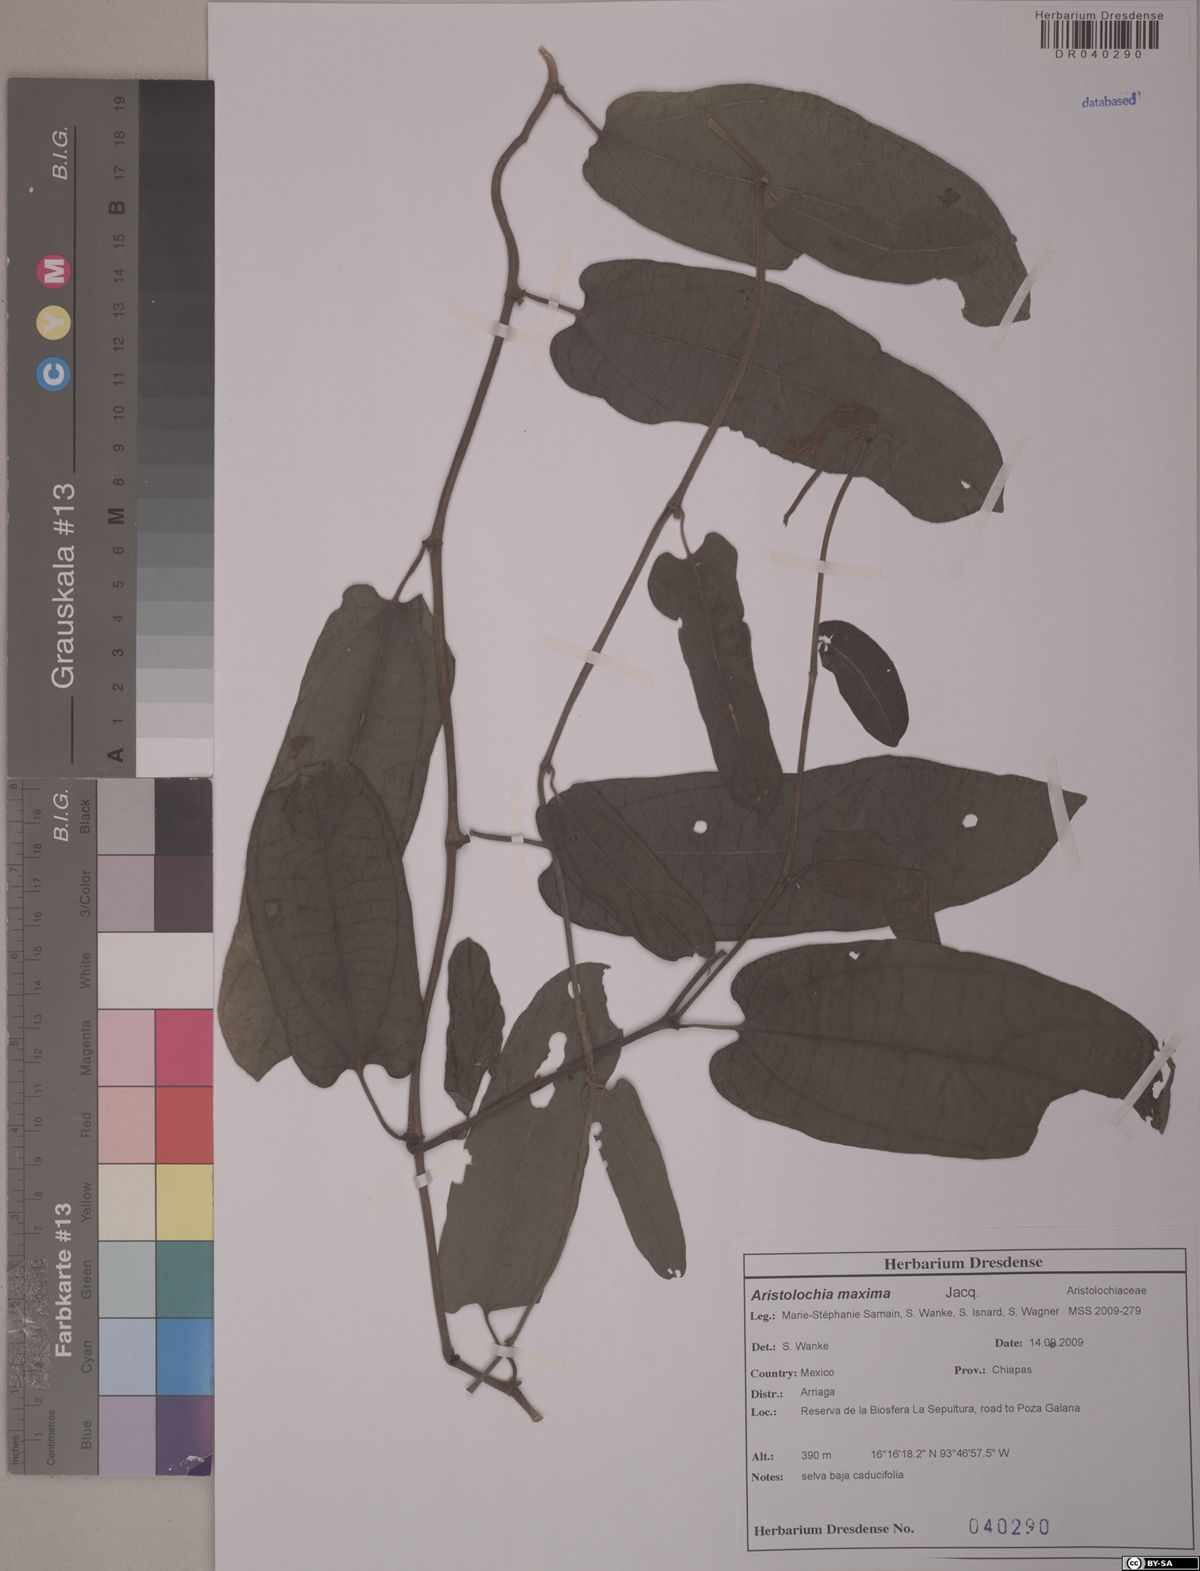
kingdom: Plantae
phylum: Tracheophyta
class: Magnoliopsida
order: Piperales
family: Aristolochiaceae
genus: Aristolochia
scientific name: Aristolochia maxima
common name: Florida dutchman's pipe
